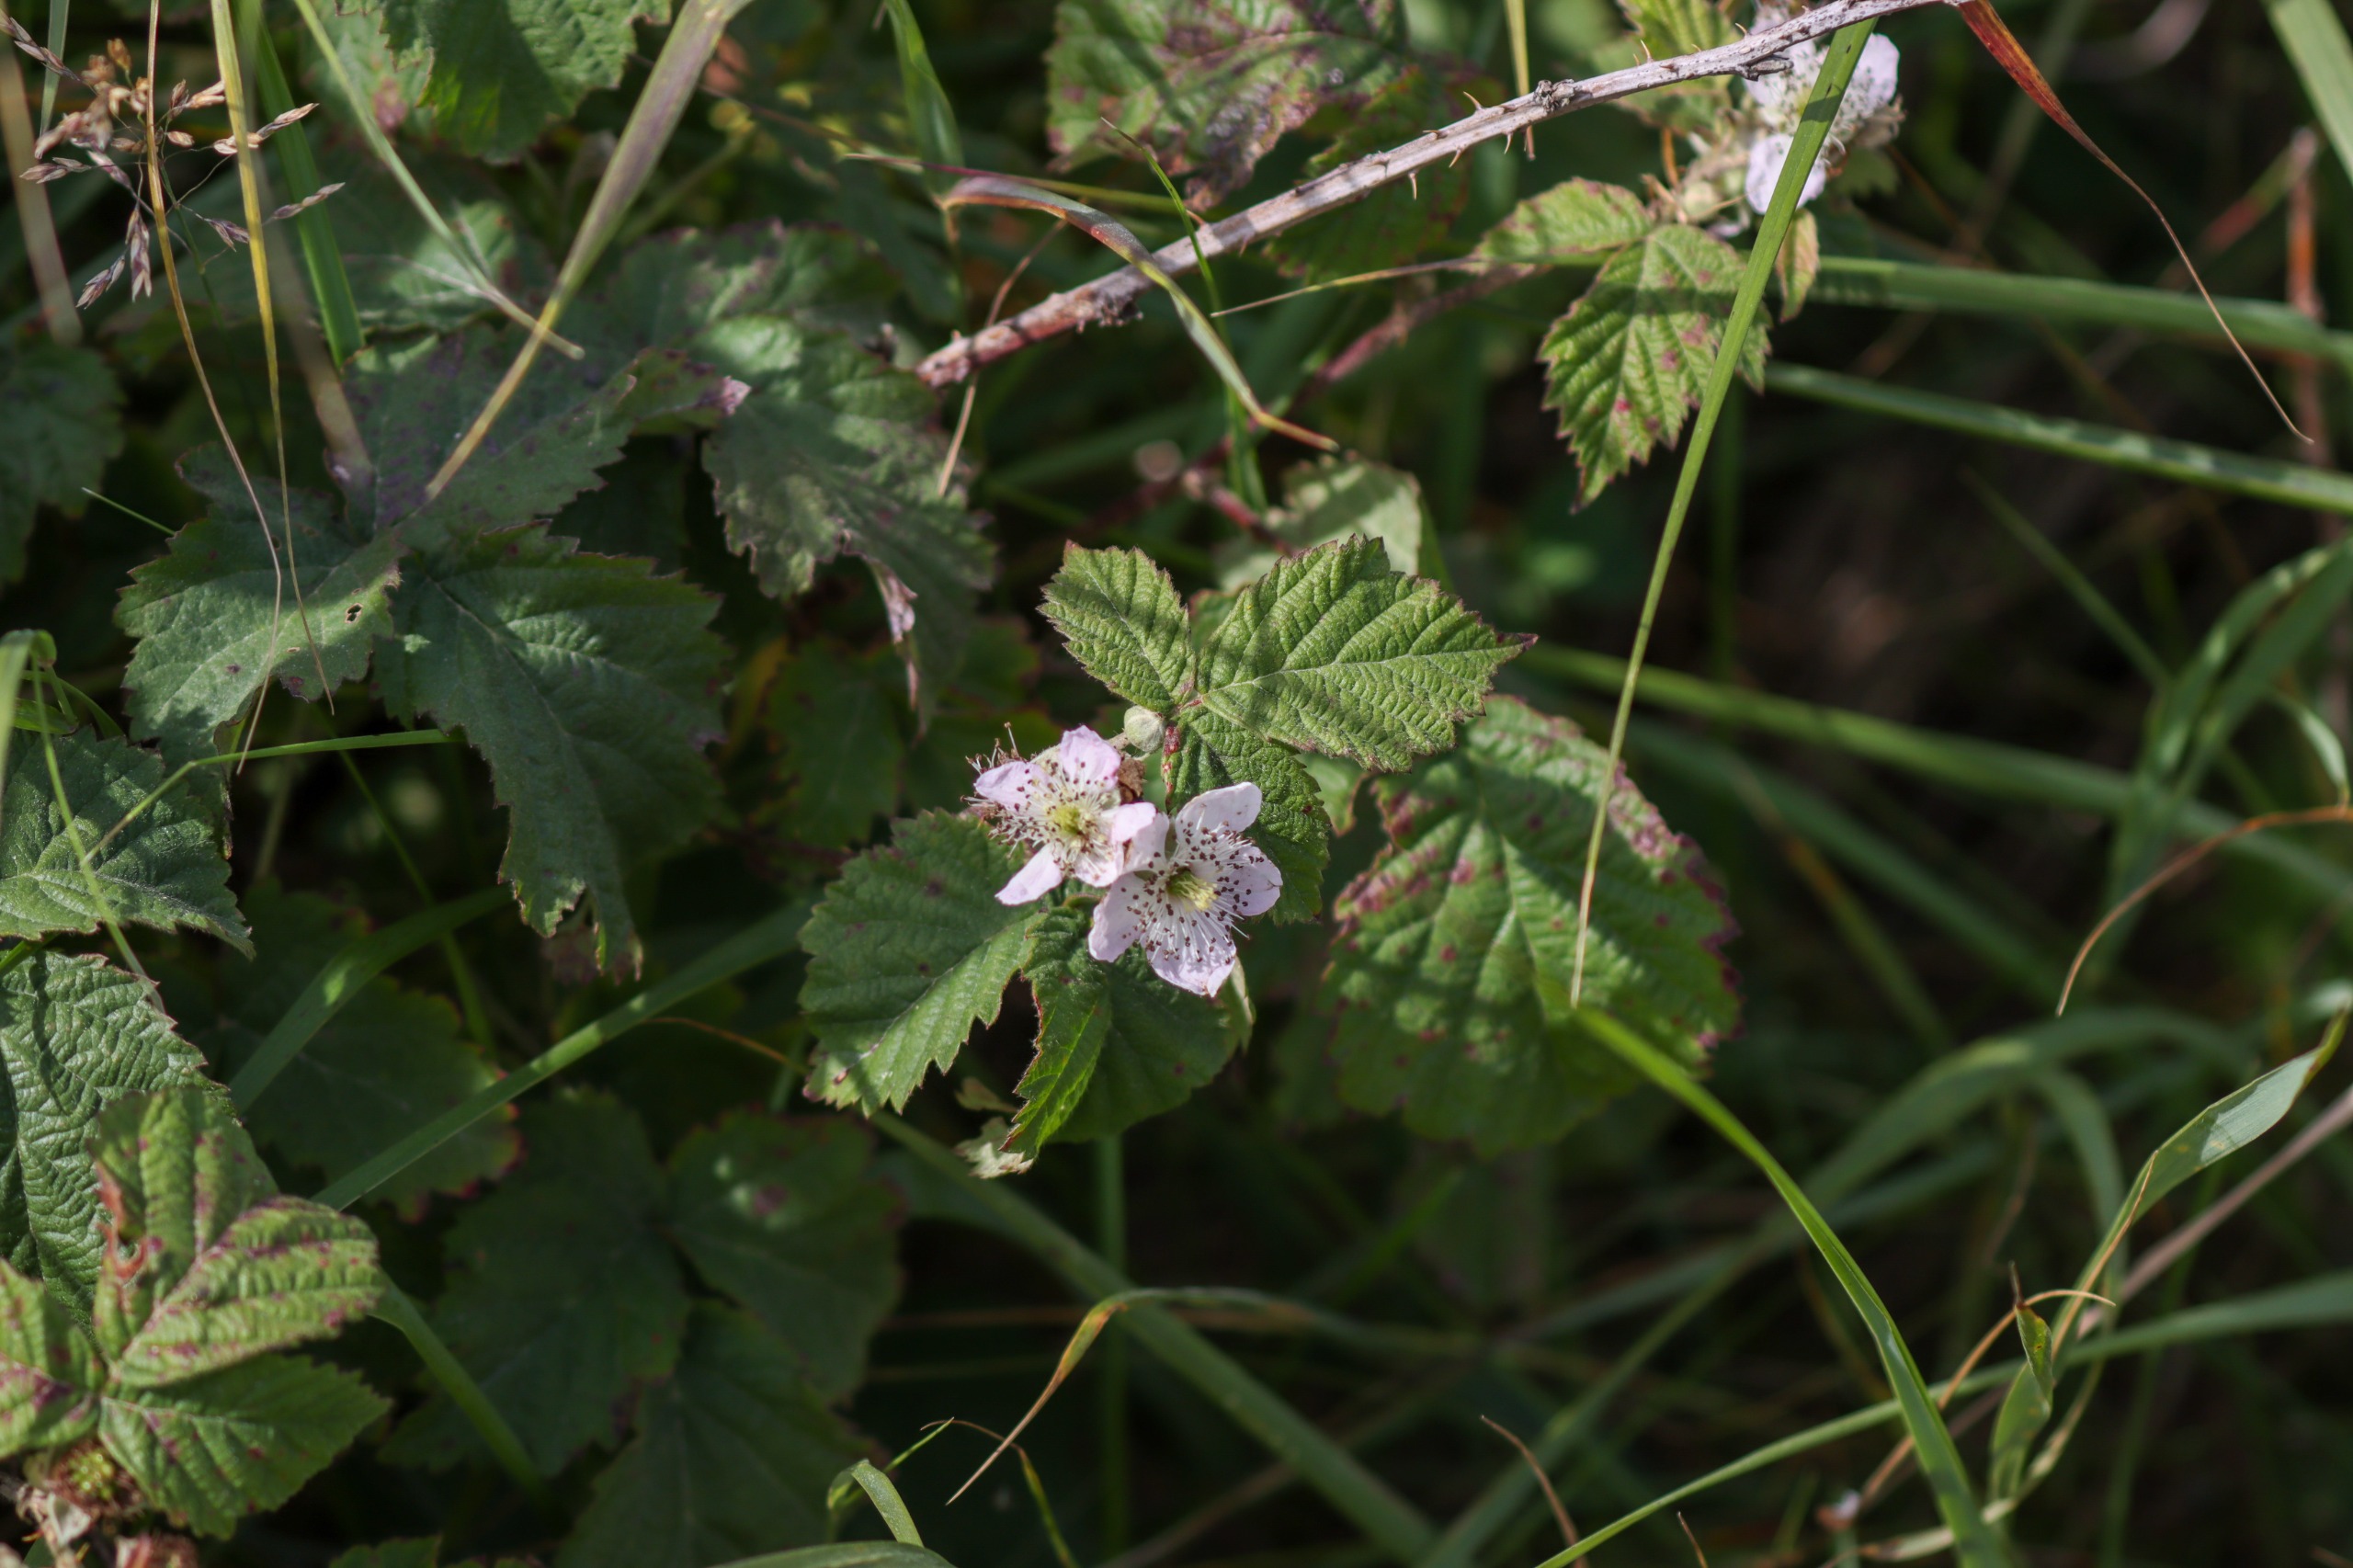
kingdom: Plantae
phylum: Tracheophyta
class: Magnoliopsida
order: Rosales
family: Rosaceae
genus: Rubus
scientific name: Rubus
